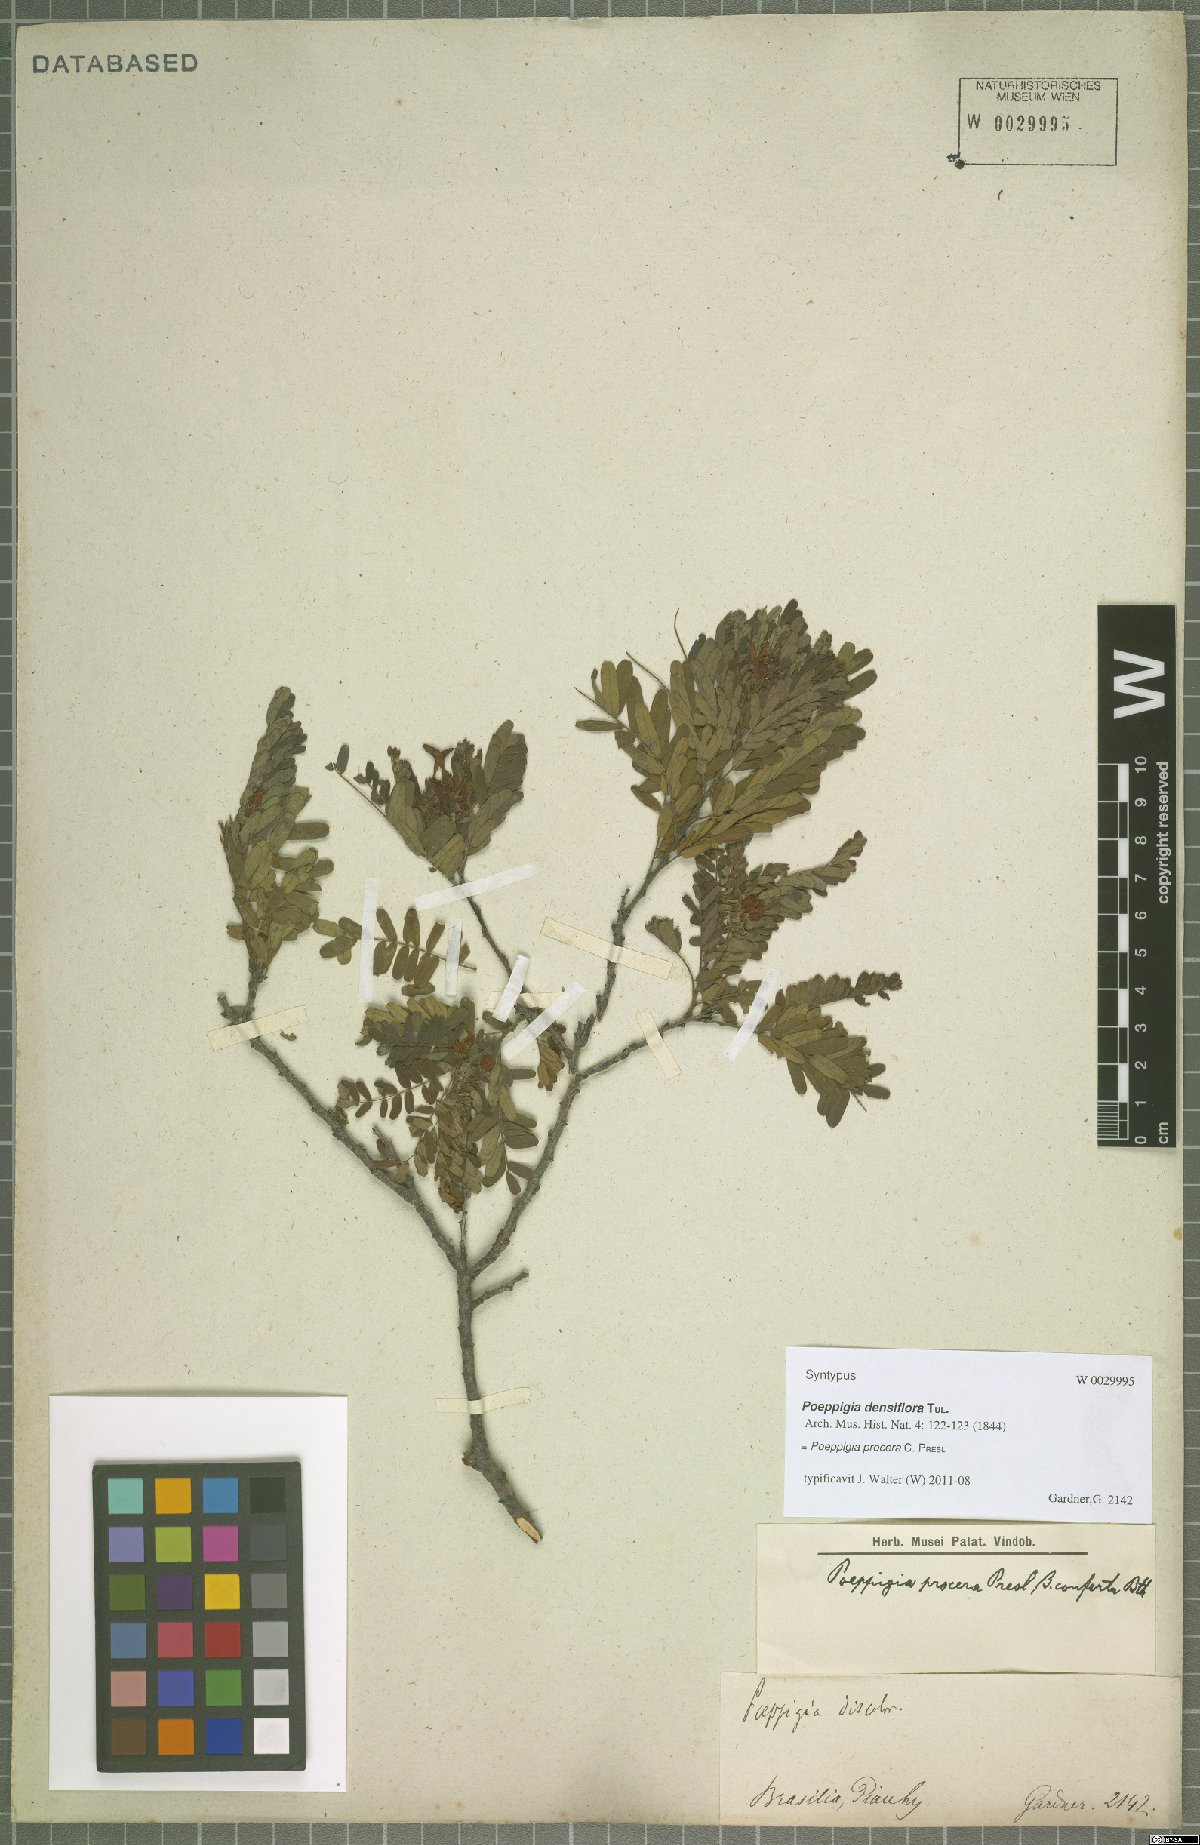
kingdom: Plantae
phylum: Tracheophyta
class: Magnoliopsida
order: Fabales
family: Fabaceae
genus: Poeppigia
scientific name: Poeppigia procera
